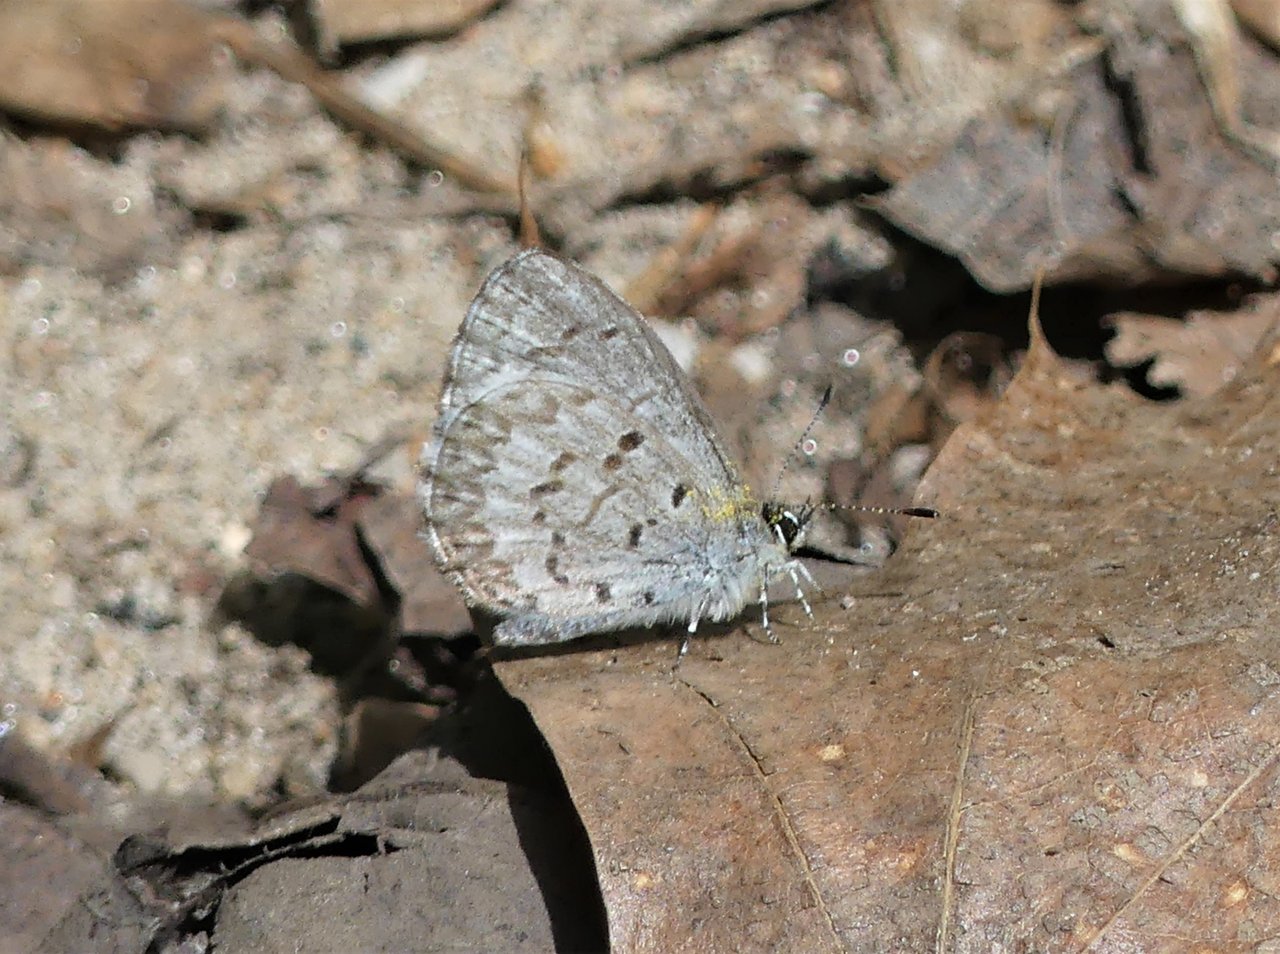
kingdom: Animalia
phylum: Arthropoda
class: Insecta
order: Lepidoptera
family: Lycaenidae
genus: Celastrina
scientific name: Celastrina lucia
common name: Northern Spring Azure
